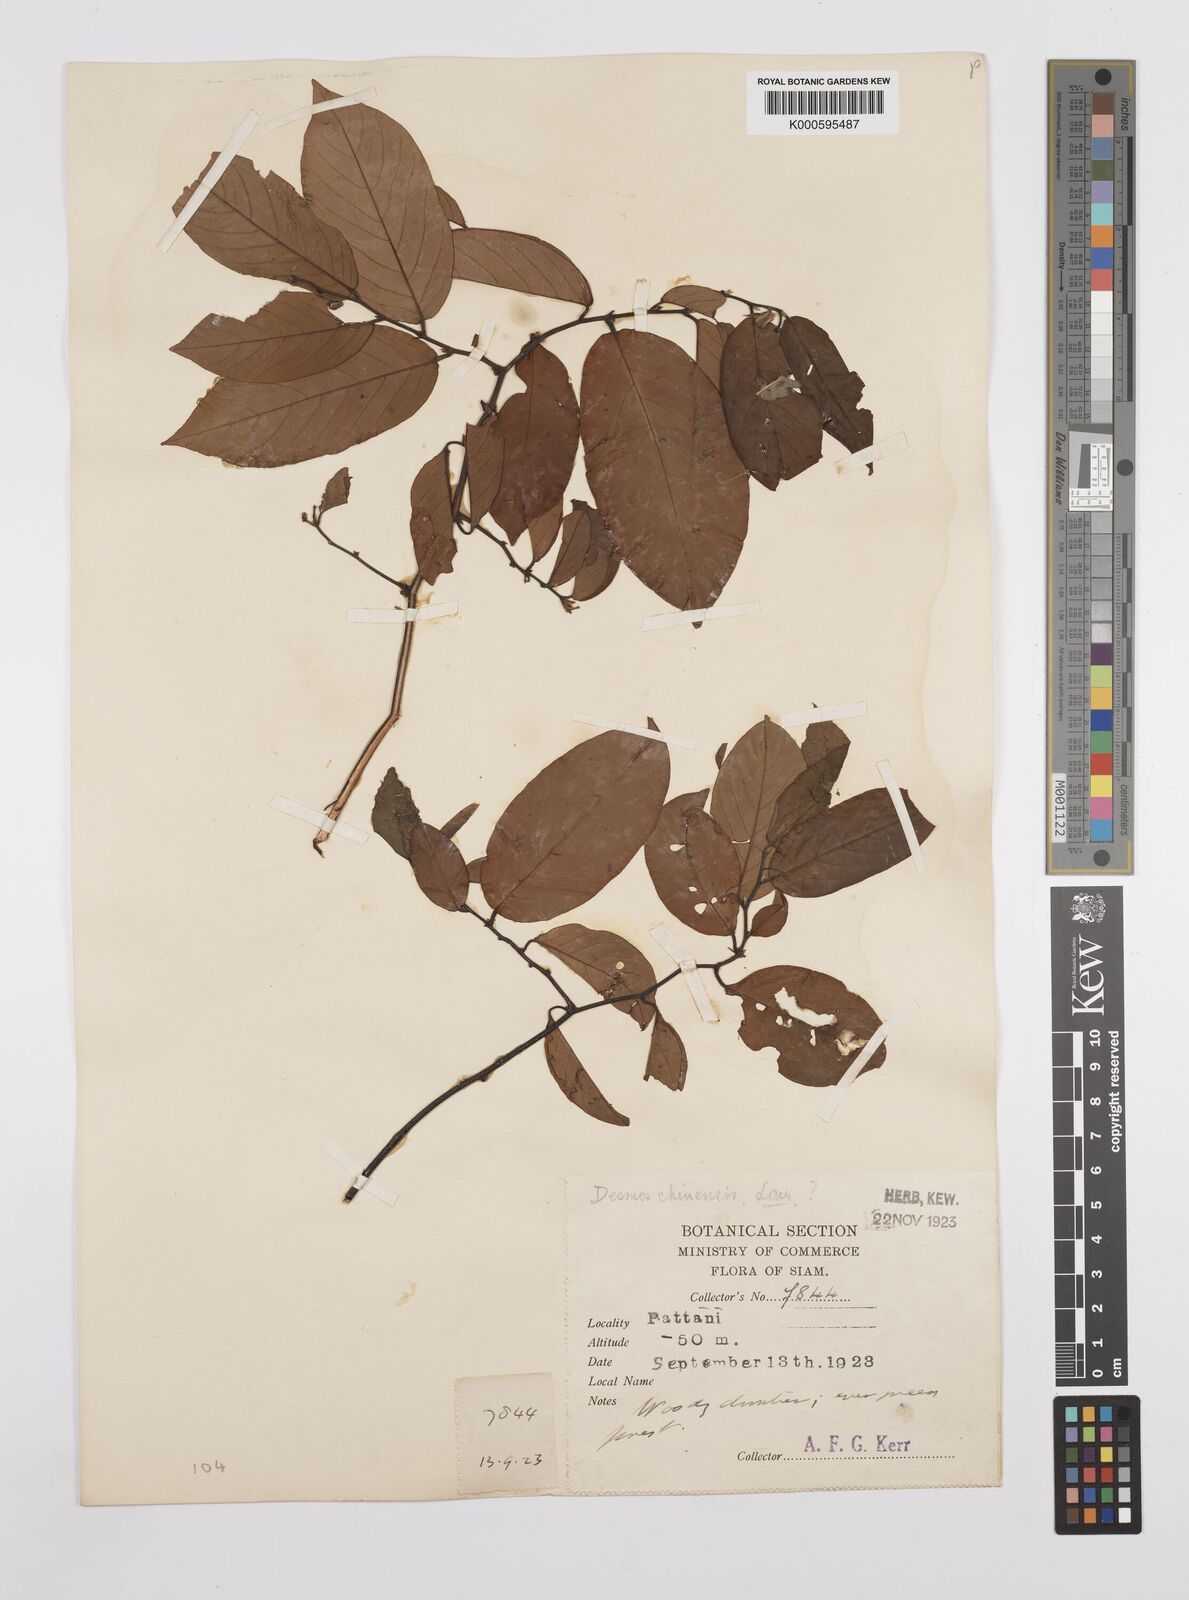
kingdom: Plantae
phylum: Tracheophyta
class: Magnoliopsida
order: Magnoliales
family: Annonaceae
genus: Desmos
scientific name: Desmos chinensis
